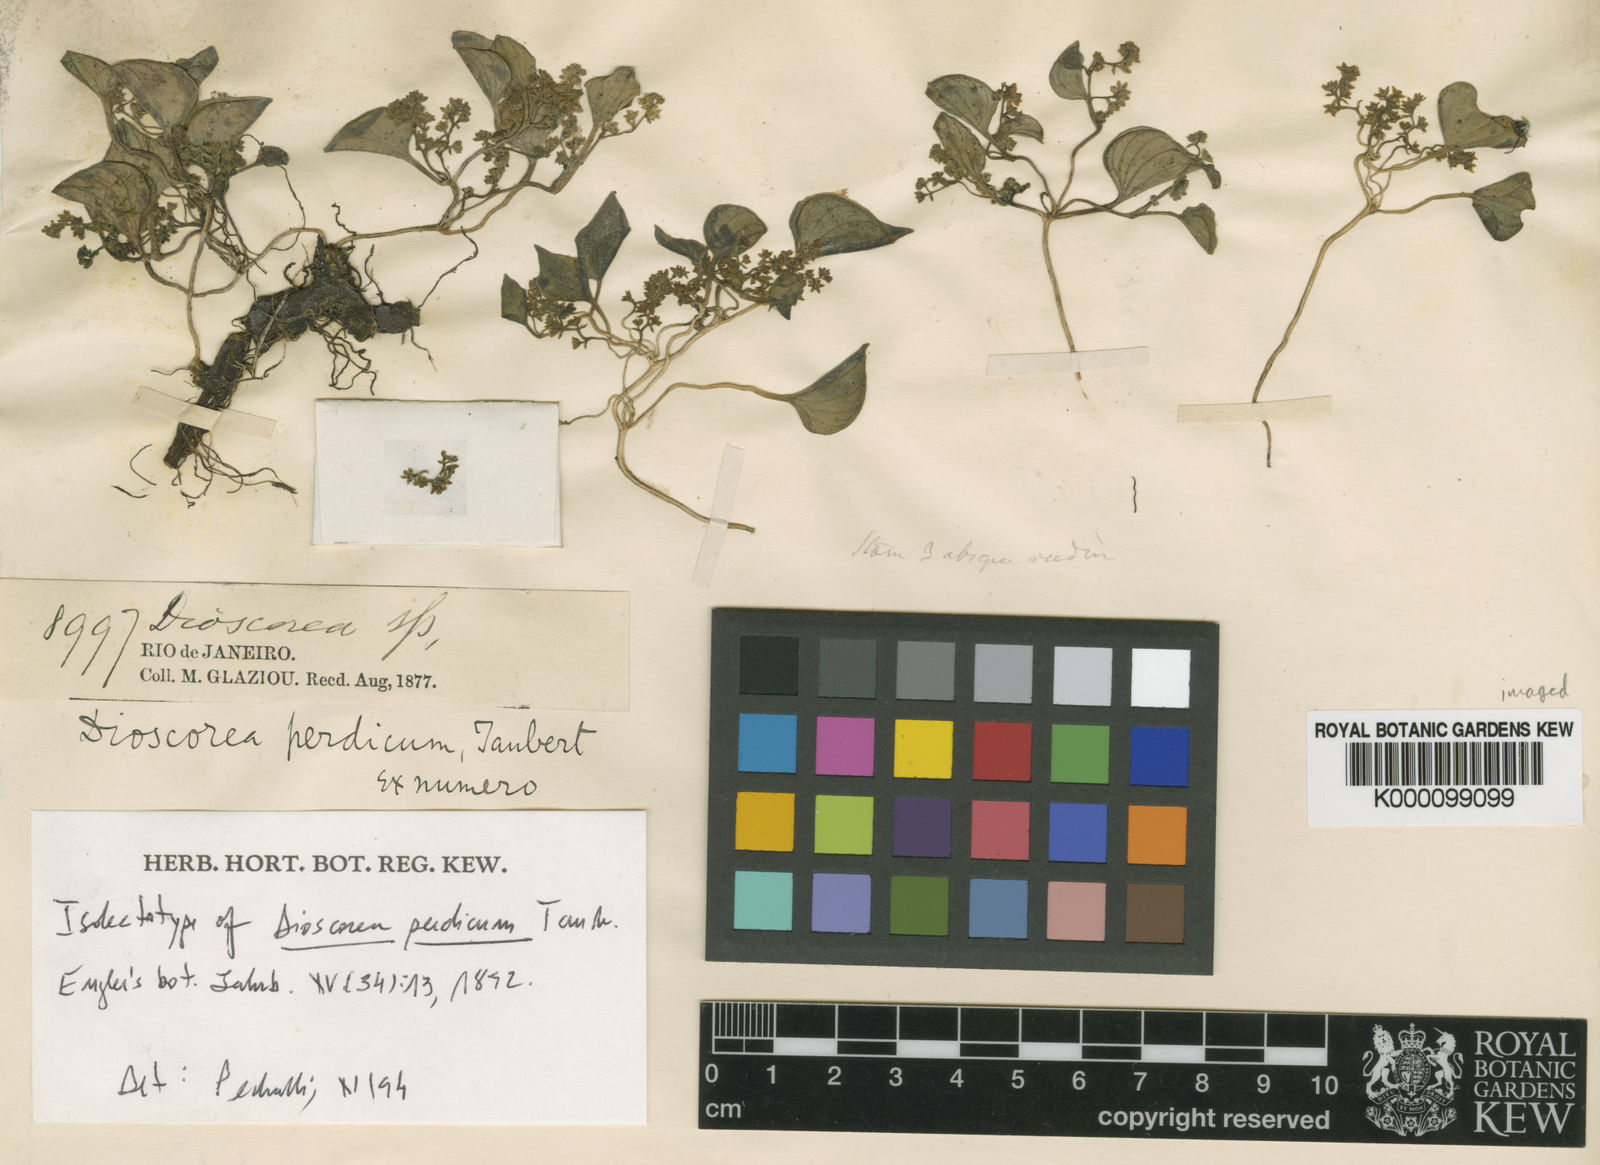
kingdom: Plantae
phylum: Tracheophyta
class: Liliopsida
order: Dioscoreales
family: Dioscoreaceae
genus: Dioscorea
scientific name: Dioscorea perdicum
